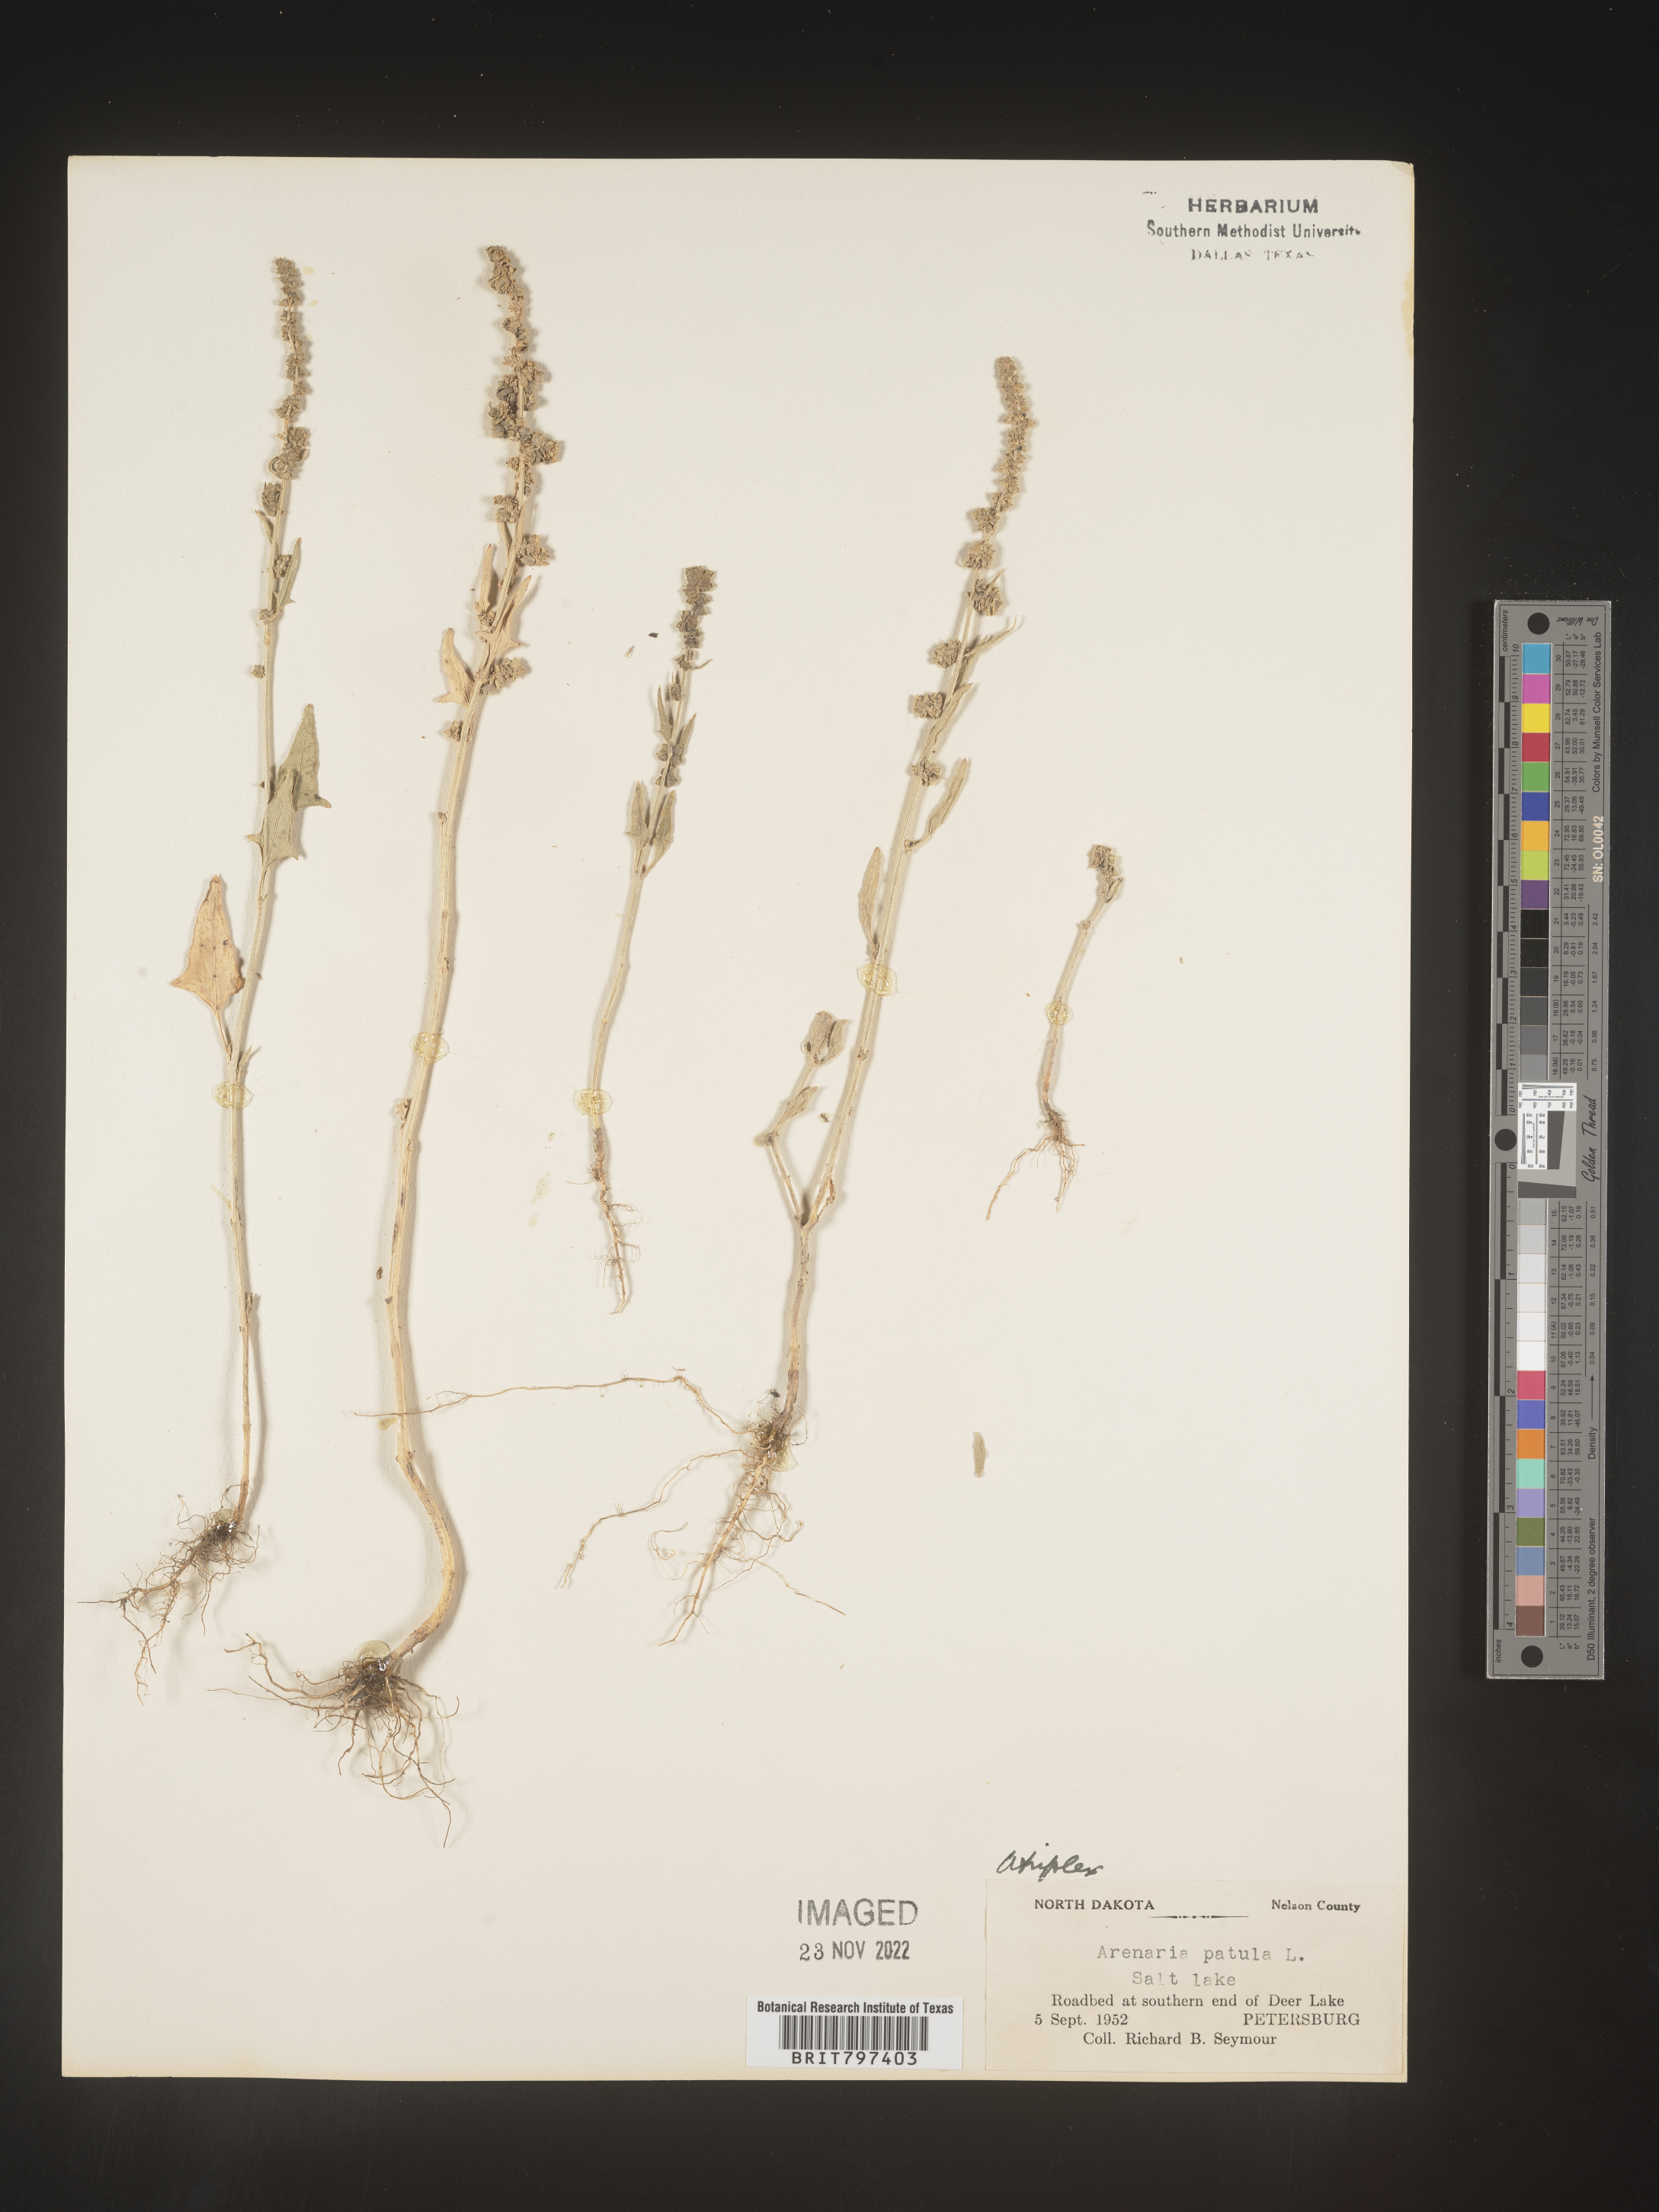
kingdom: Plantae
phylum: Tracheophyta
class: Magnoliopsida
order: Caryophyllales
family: Amaranthaceae
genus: Atriplex
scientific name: Atriplex prostrata
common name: Spear-leaved orache
